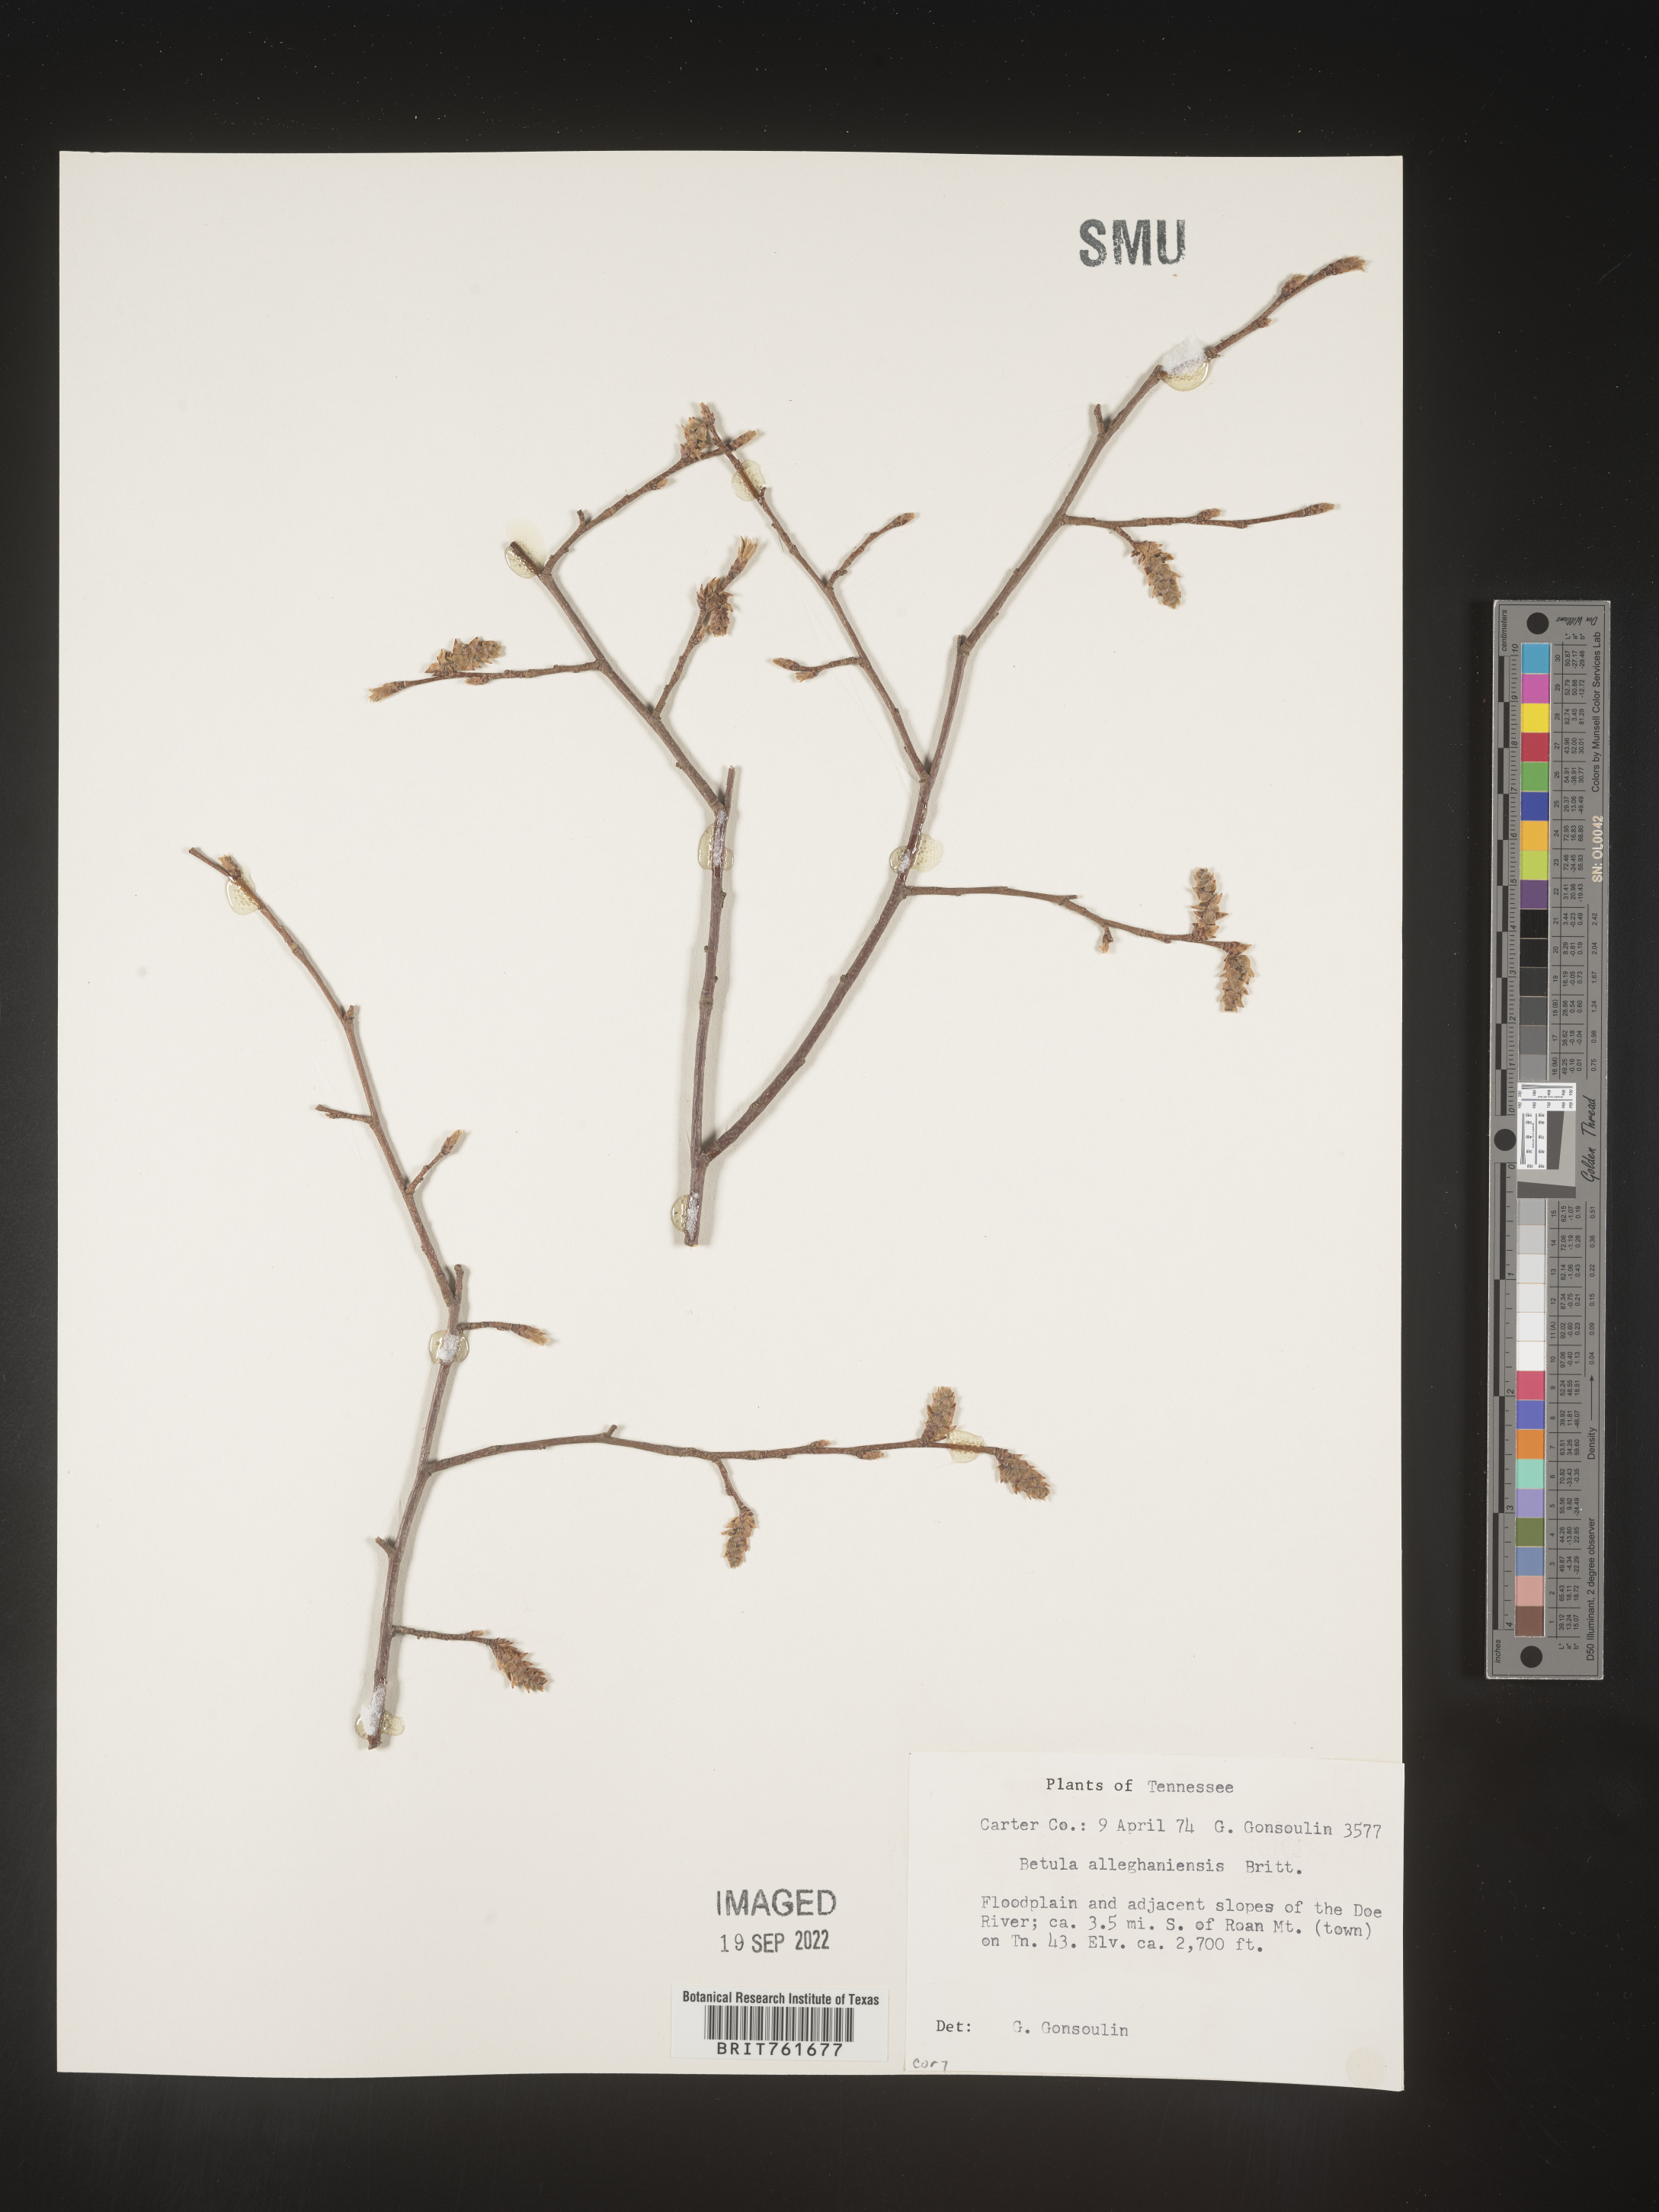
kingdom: Plantae
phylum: Tracheophyta
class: Magnoliopsida
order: Fagales
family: Betulaceae
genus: Betula
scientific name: Betula alleghaniensis
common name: Yellow birch
